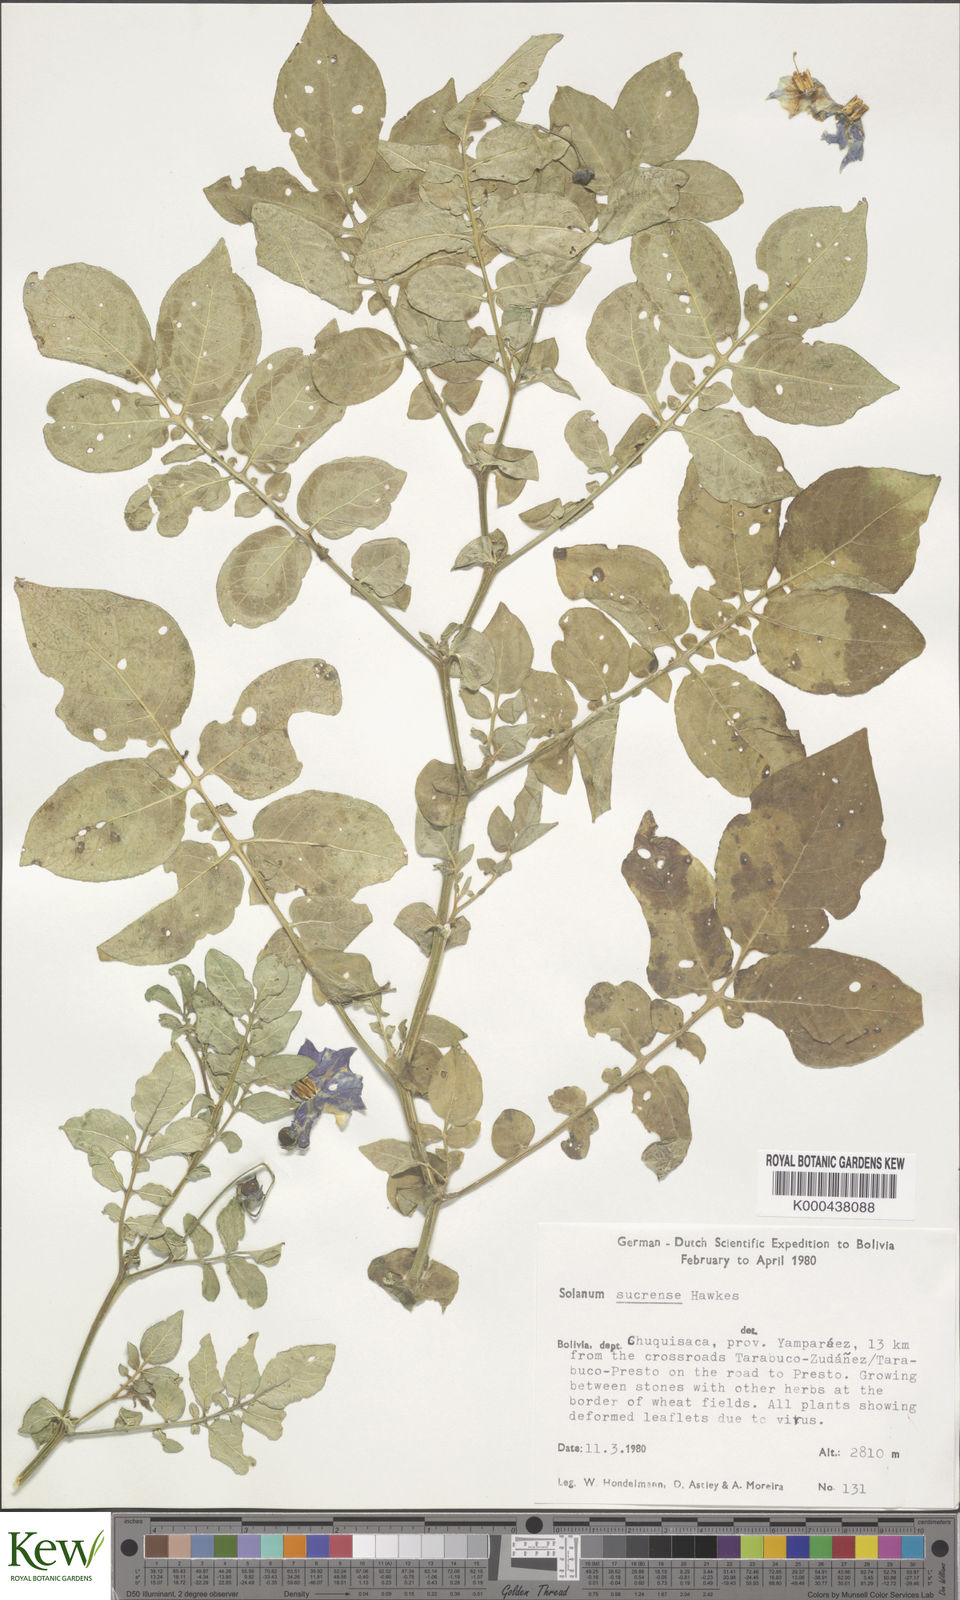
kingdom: Plantae
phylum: Tracheophyta
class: Magnoliopsida
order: Solanales
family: Solanaceae
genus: Solanum
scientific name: Solanum brevicaule
